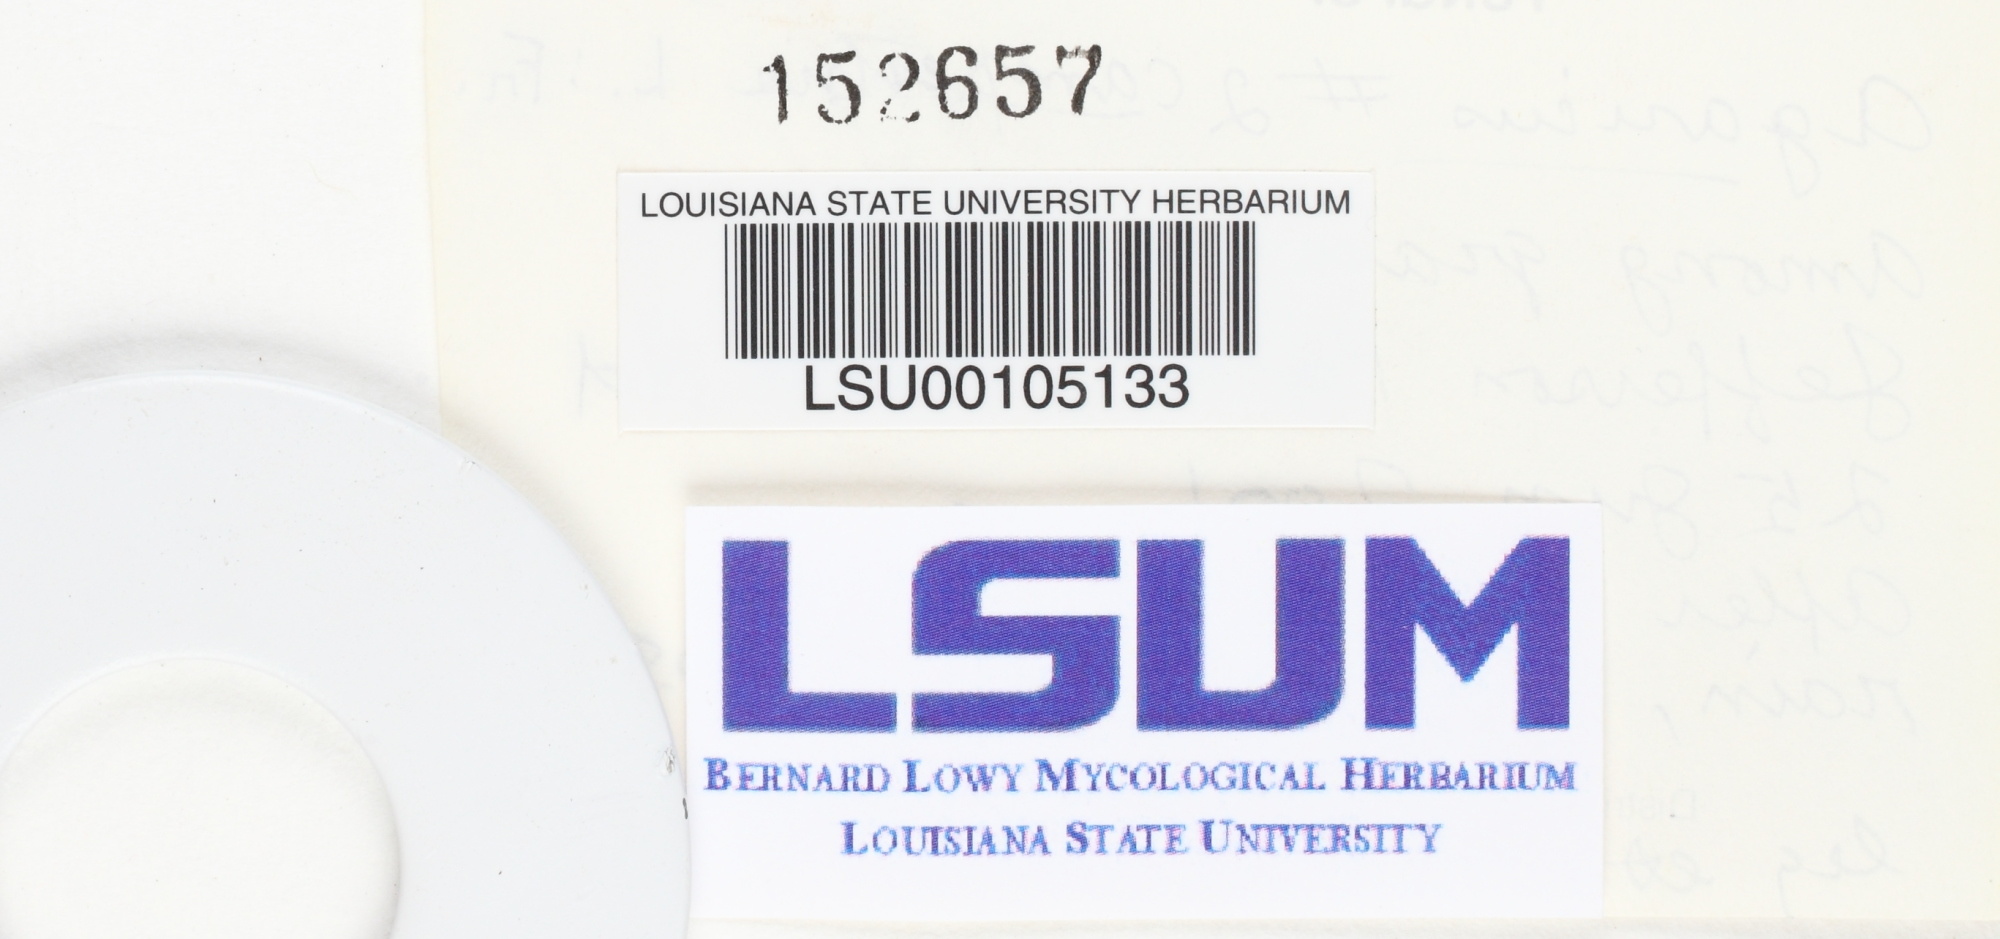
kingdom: Fungi
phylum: Basidiomycota
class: Agaricomycetes
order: Agaricales
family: Agaricaceae
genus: Agaricus
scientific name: Agaricus campestris
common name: Field mushroom
